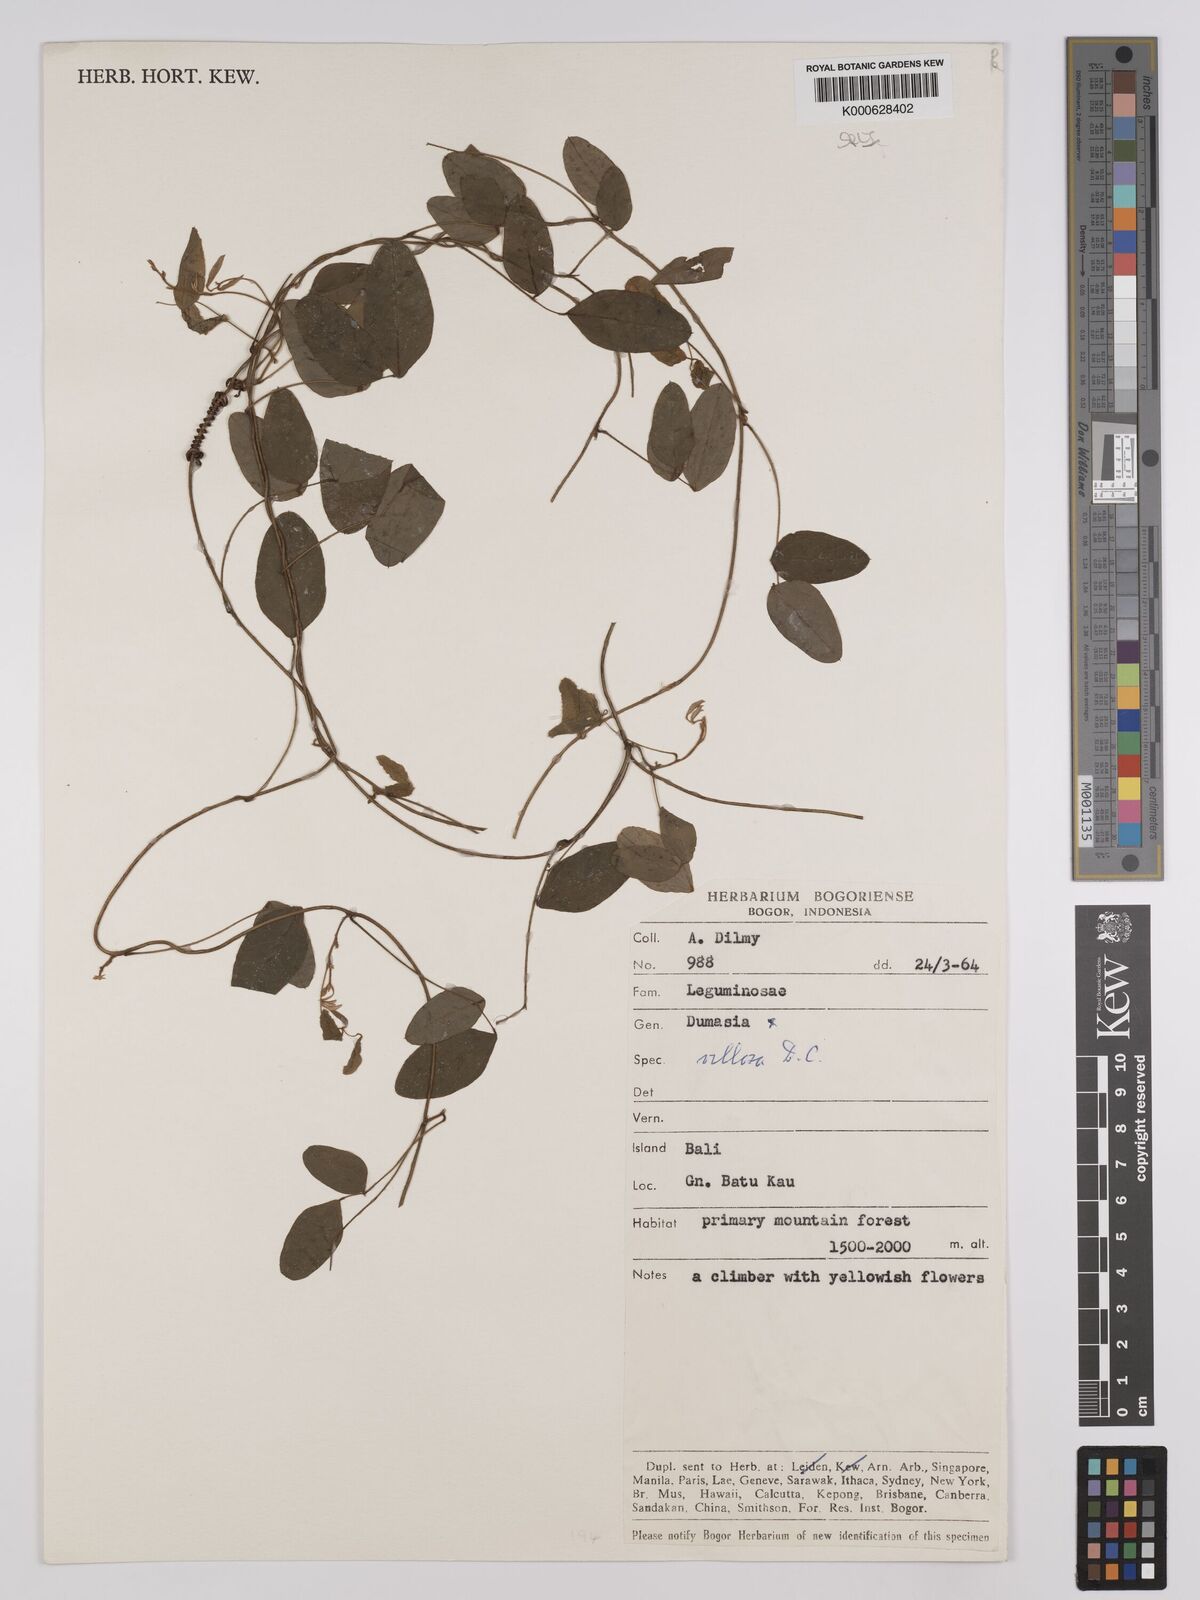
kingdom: Plantae
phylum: Tracheophyta
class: Magnoliopsida
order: Fabales
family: Fabaceae
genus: Dumasia
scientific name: Dumasia villosa
